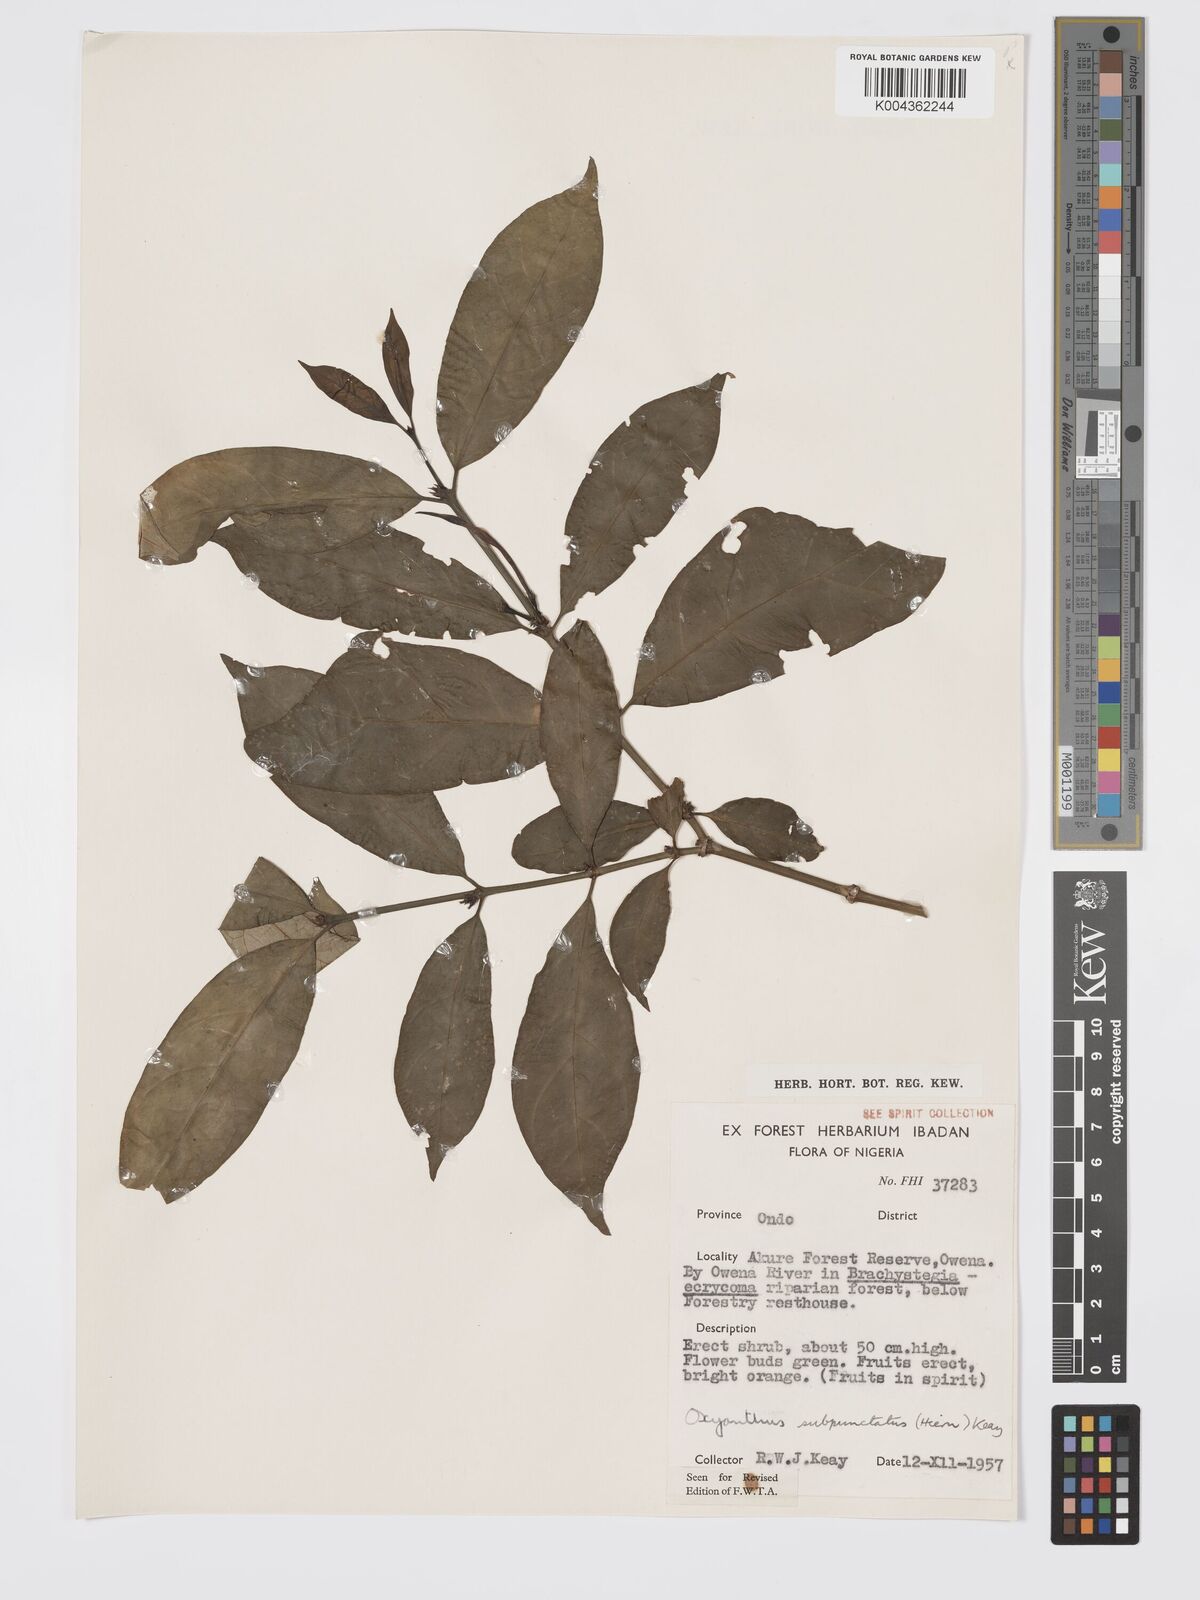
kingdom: Plantae
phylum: Tracheophyta
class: Magnoliopsida
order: Gentianales
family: Rubiaceae
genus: Oxyanthus
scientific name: Oxyanthus subpunctatus
